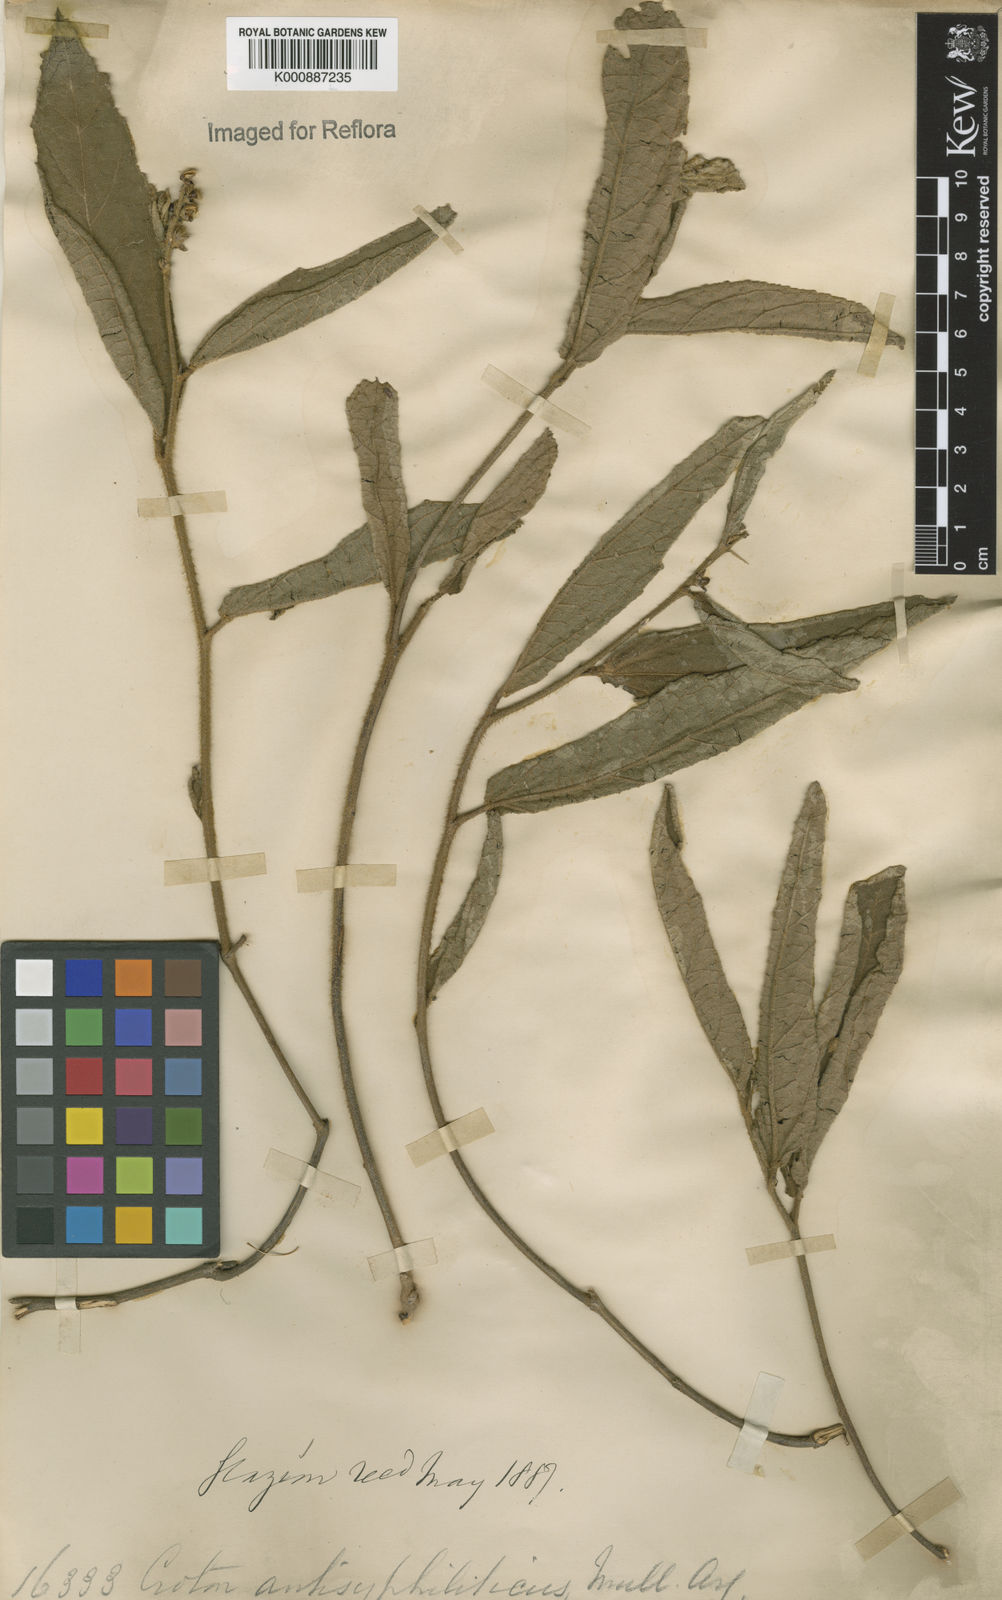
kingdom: Plantae
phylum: Tracheophyta
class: Magnoliopsida
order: Malpighiales
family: Euphorbiaceae
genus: Croton
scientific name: Croton antisyphiliticus
